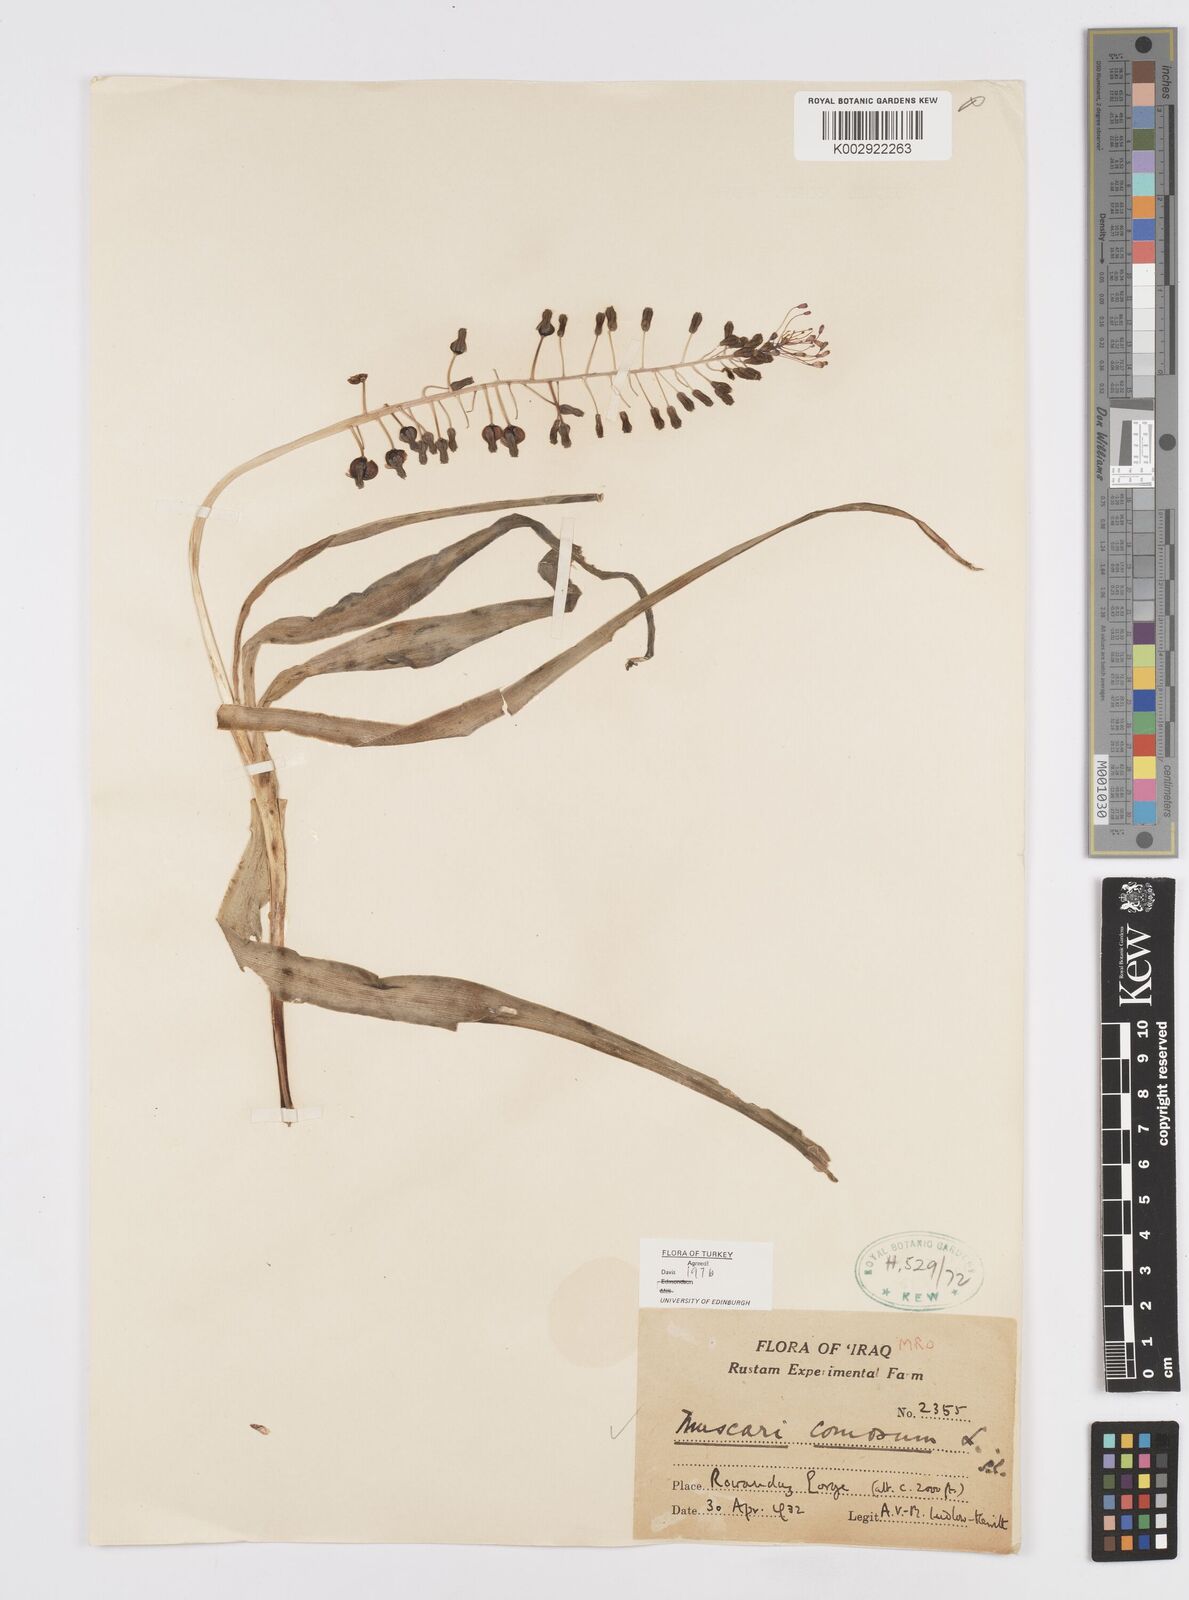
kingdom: Plantae
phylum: Tracheophyta
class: Liliopsida
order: Asparagales
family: Asparagaceae
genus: Muscari
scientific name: Muscari comosum
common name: Tassel hyacinth
